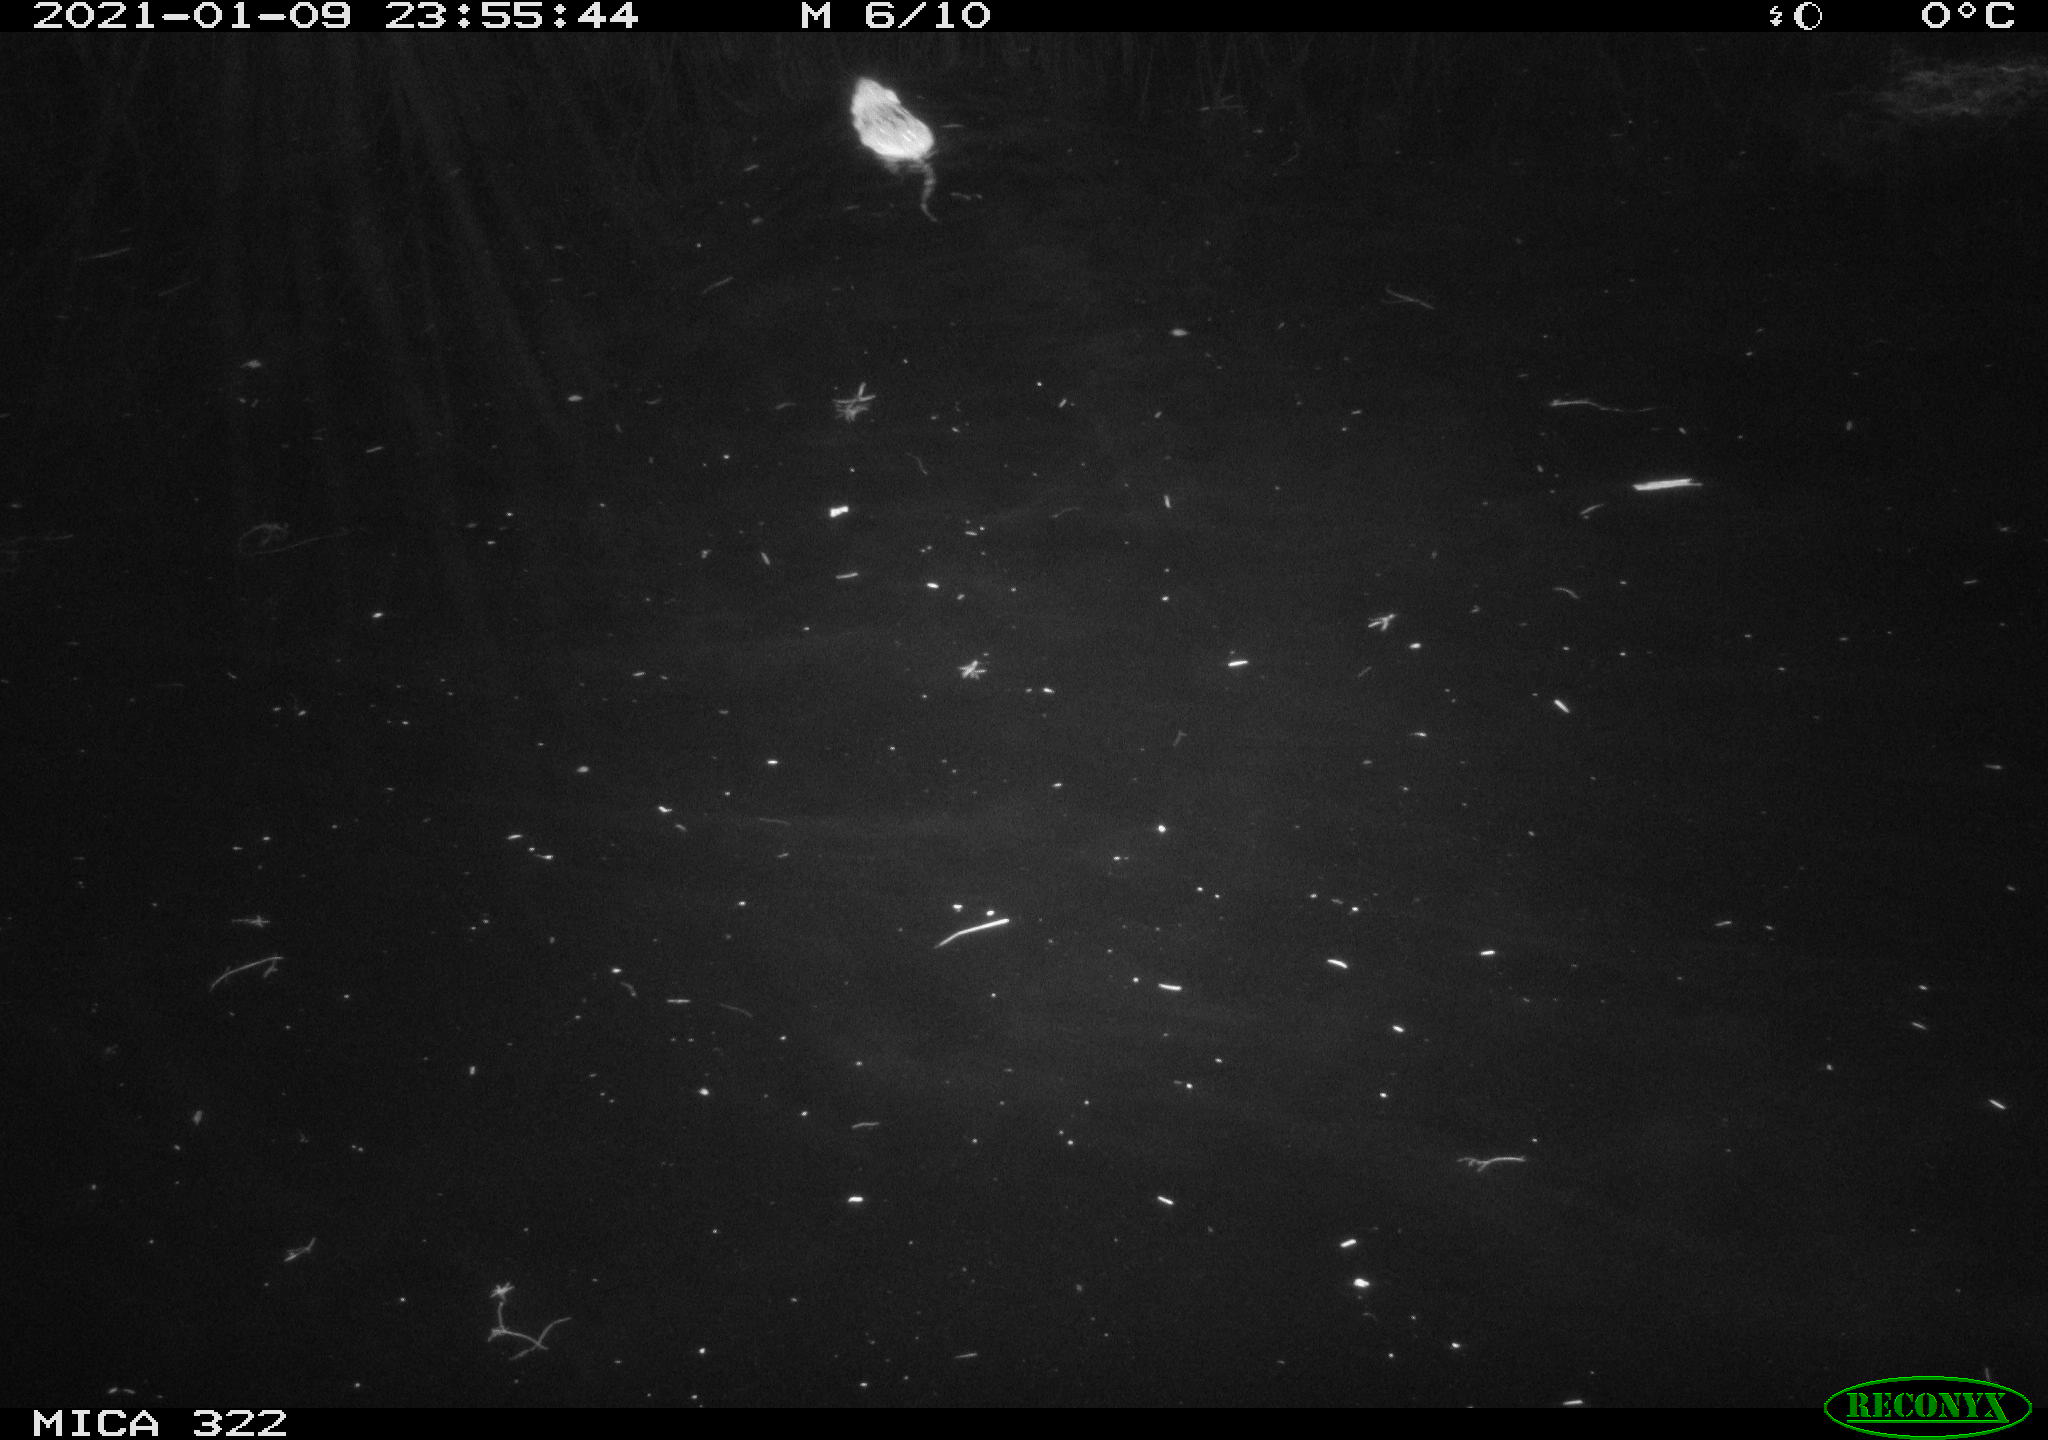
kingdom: Animalia
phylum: Chordata
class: Mammalia
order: Rodentia
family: Muridae
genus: Rattus
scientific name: Rattus norvegicus
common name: Brown rat
